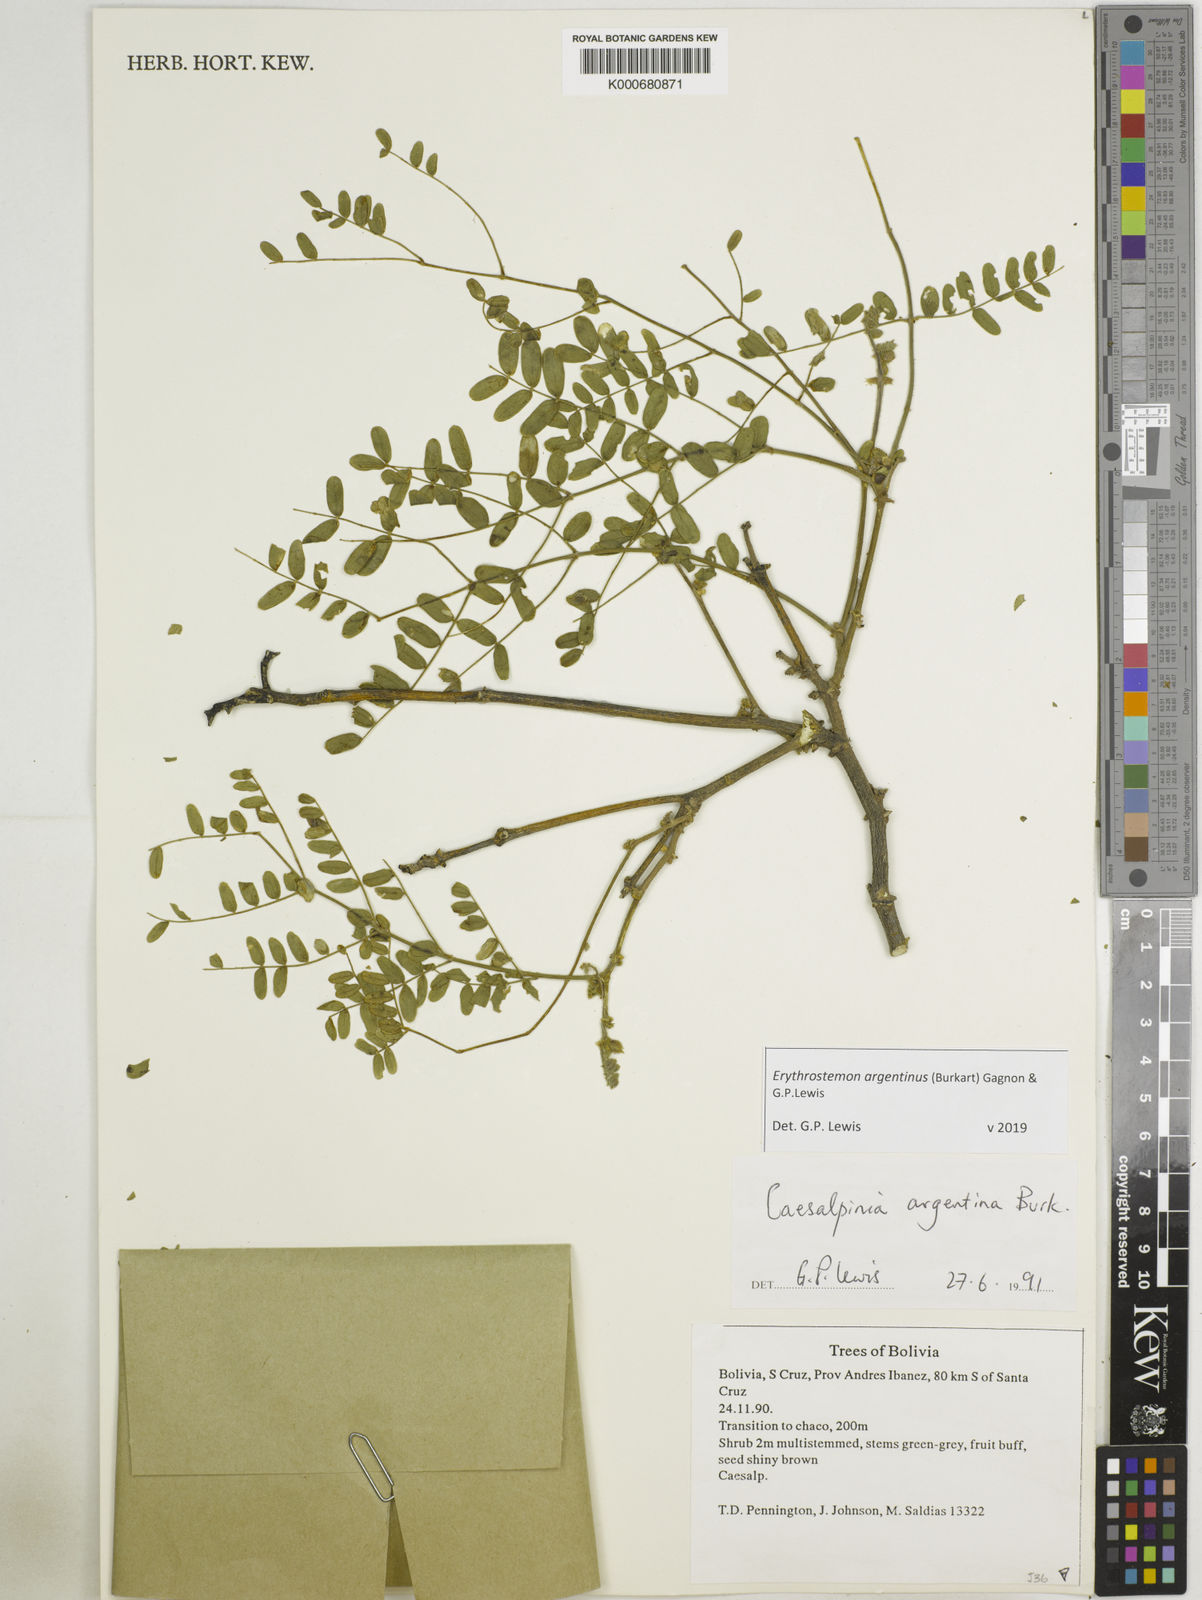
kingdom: Plantae
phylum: Tracheophyta
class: Magnoliopsida
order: Fabales
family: Fabaceae
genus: Erythrostemon
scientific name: Erythrostemon argentinus
